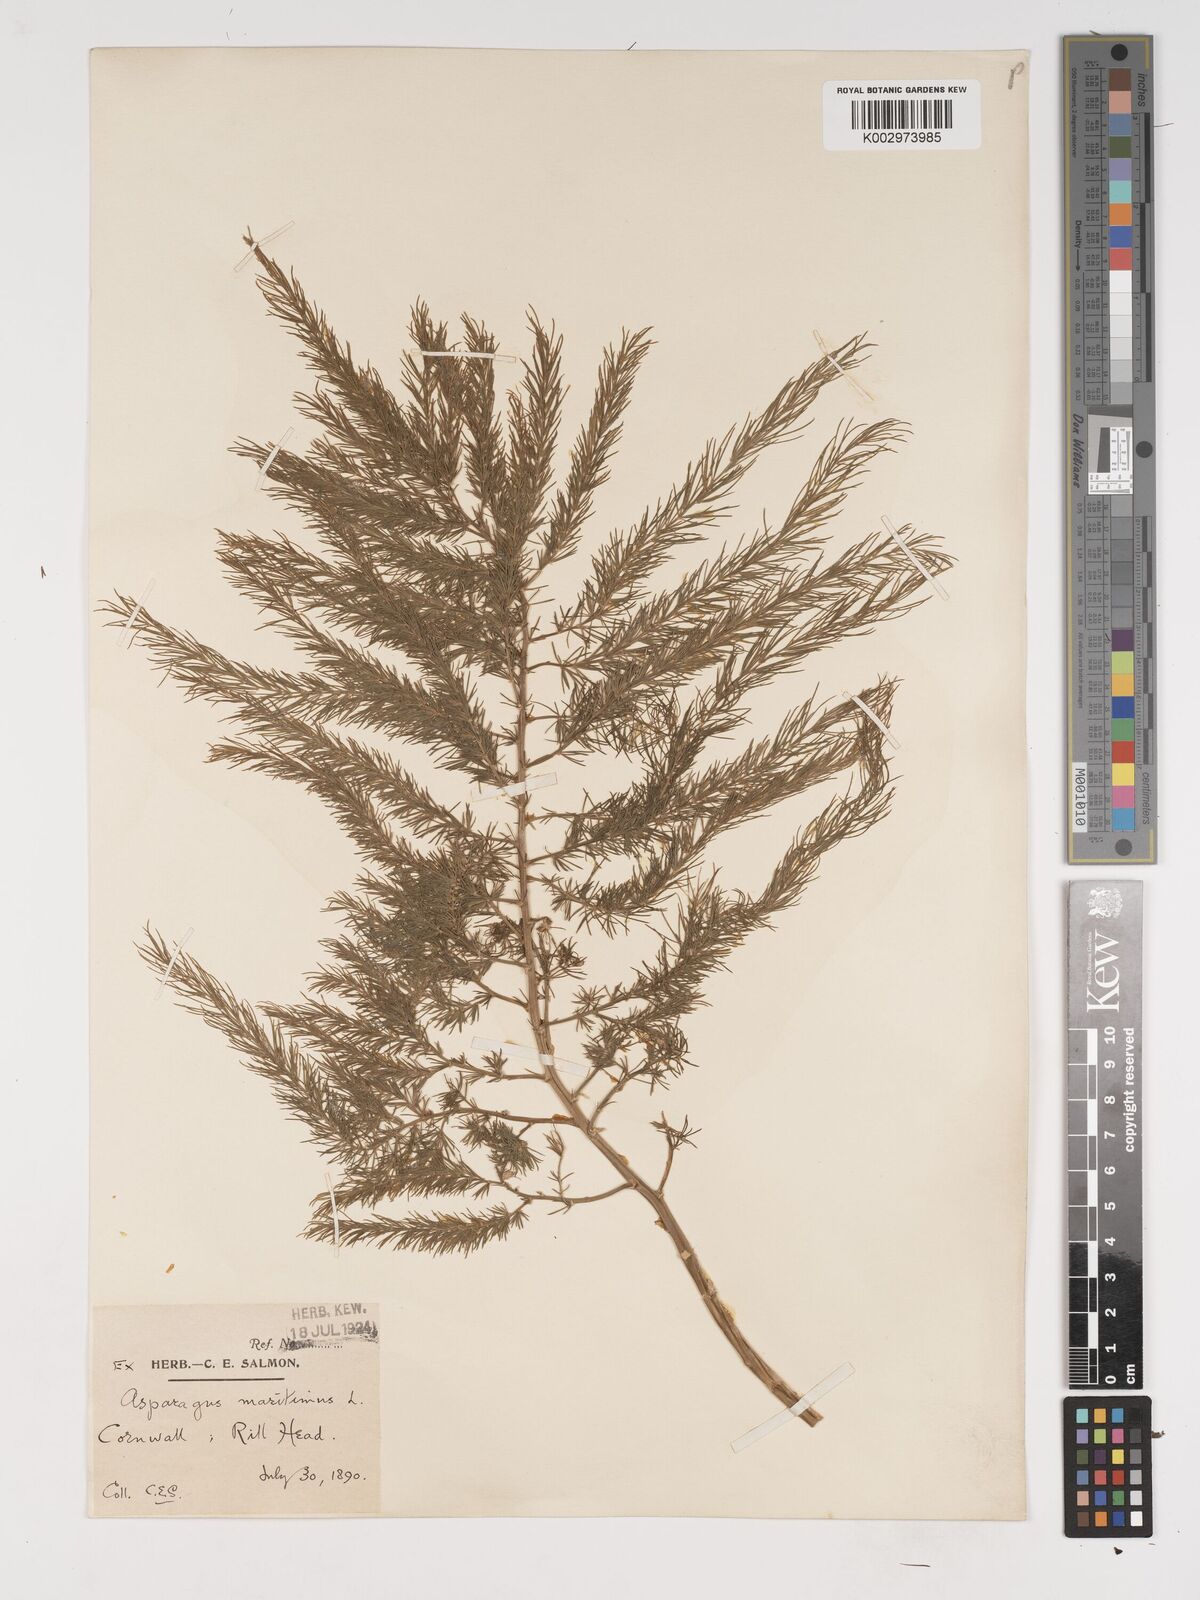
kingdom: Plantae
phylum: Tracheophyta
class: Liliopsida
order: Asparagales
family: Asparagaceae
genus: Asparagus
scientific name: Asparagus maritimus
